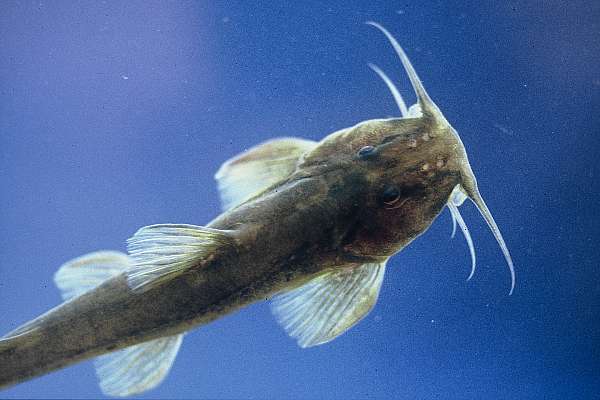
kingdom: Animalia
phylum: Chordata
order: Siluriformes
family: Amphiliidae
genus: Amphilius
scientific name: Amphilius uranoscopus
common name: Stargazer mountain catfish
